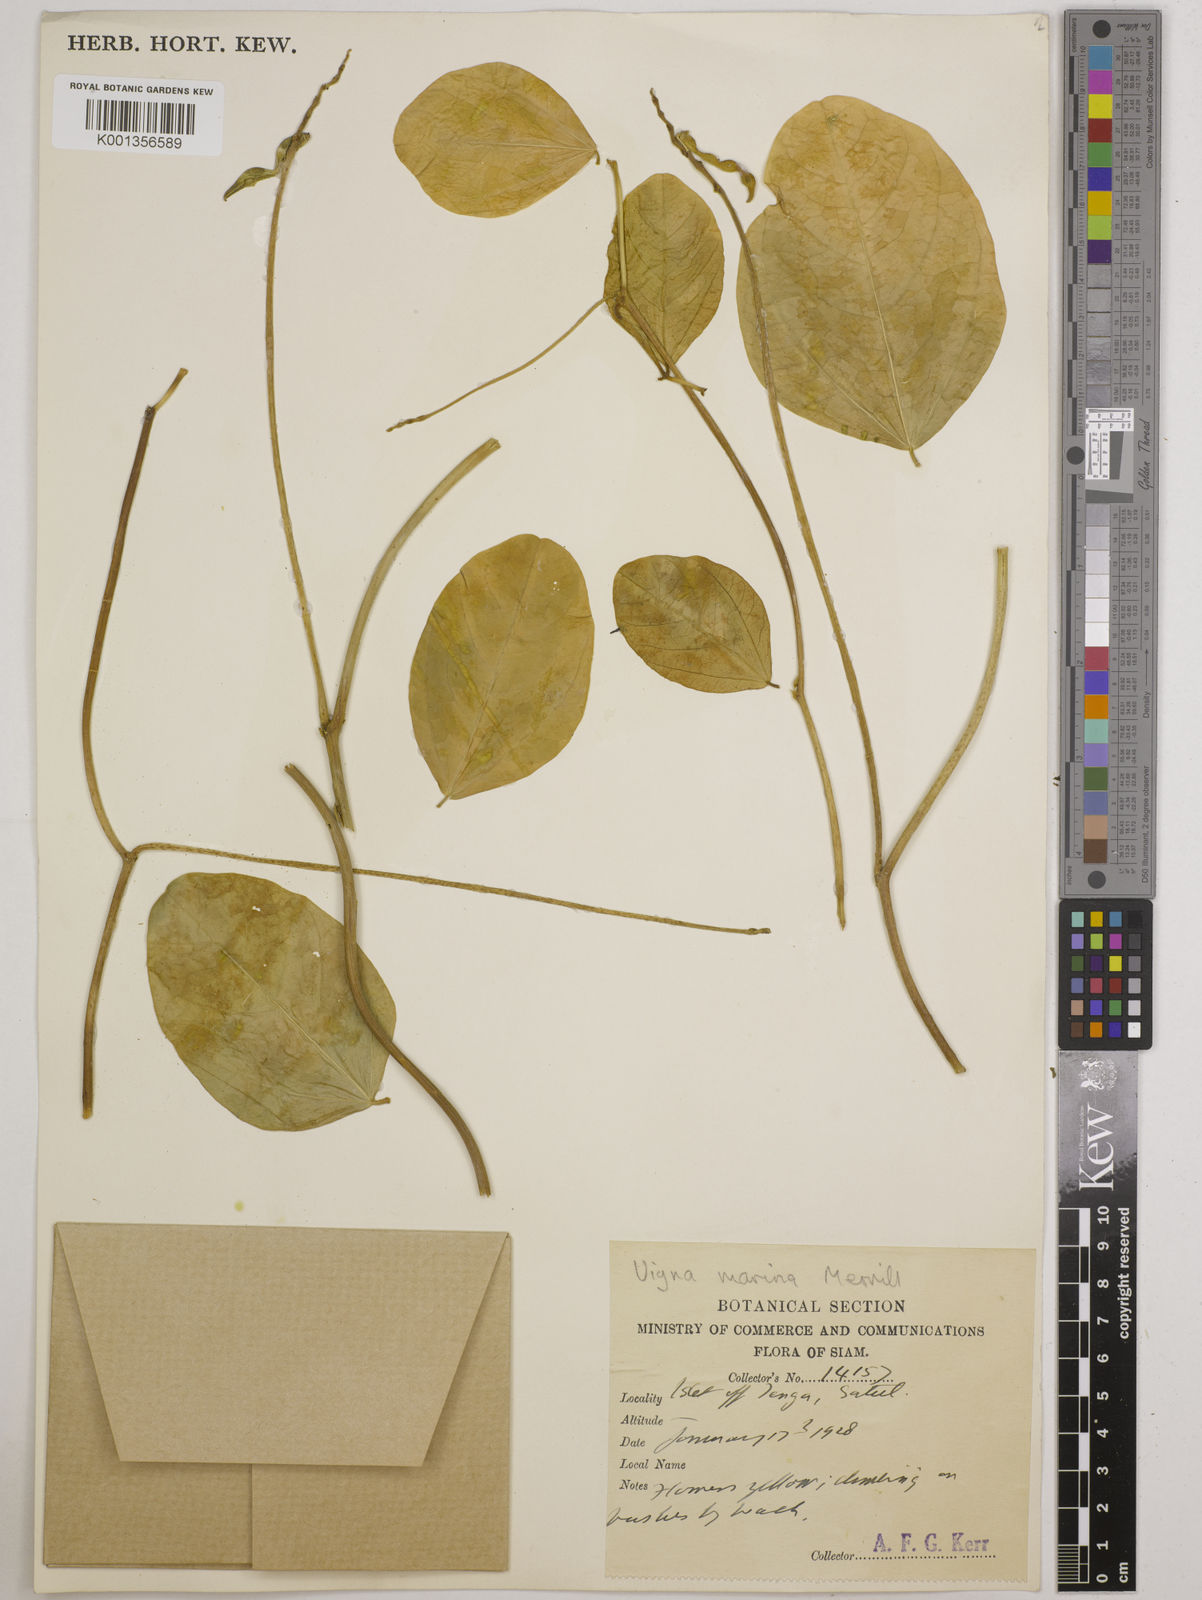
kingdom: Plantae
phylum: Tracheophyta
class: Magnoliopsida
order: Fabales
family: Fabaceae
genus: Vigna
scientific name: Vigna marina
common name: Dune-bean
